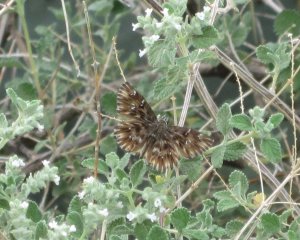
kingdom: Animalia
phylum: Arthropoda
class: Insecta
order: Lepidoptera
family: Hesperiidae
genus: Celotes
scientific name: Celotes nessus
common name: Common Streaky-Skipper
